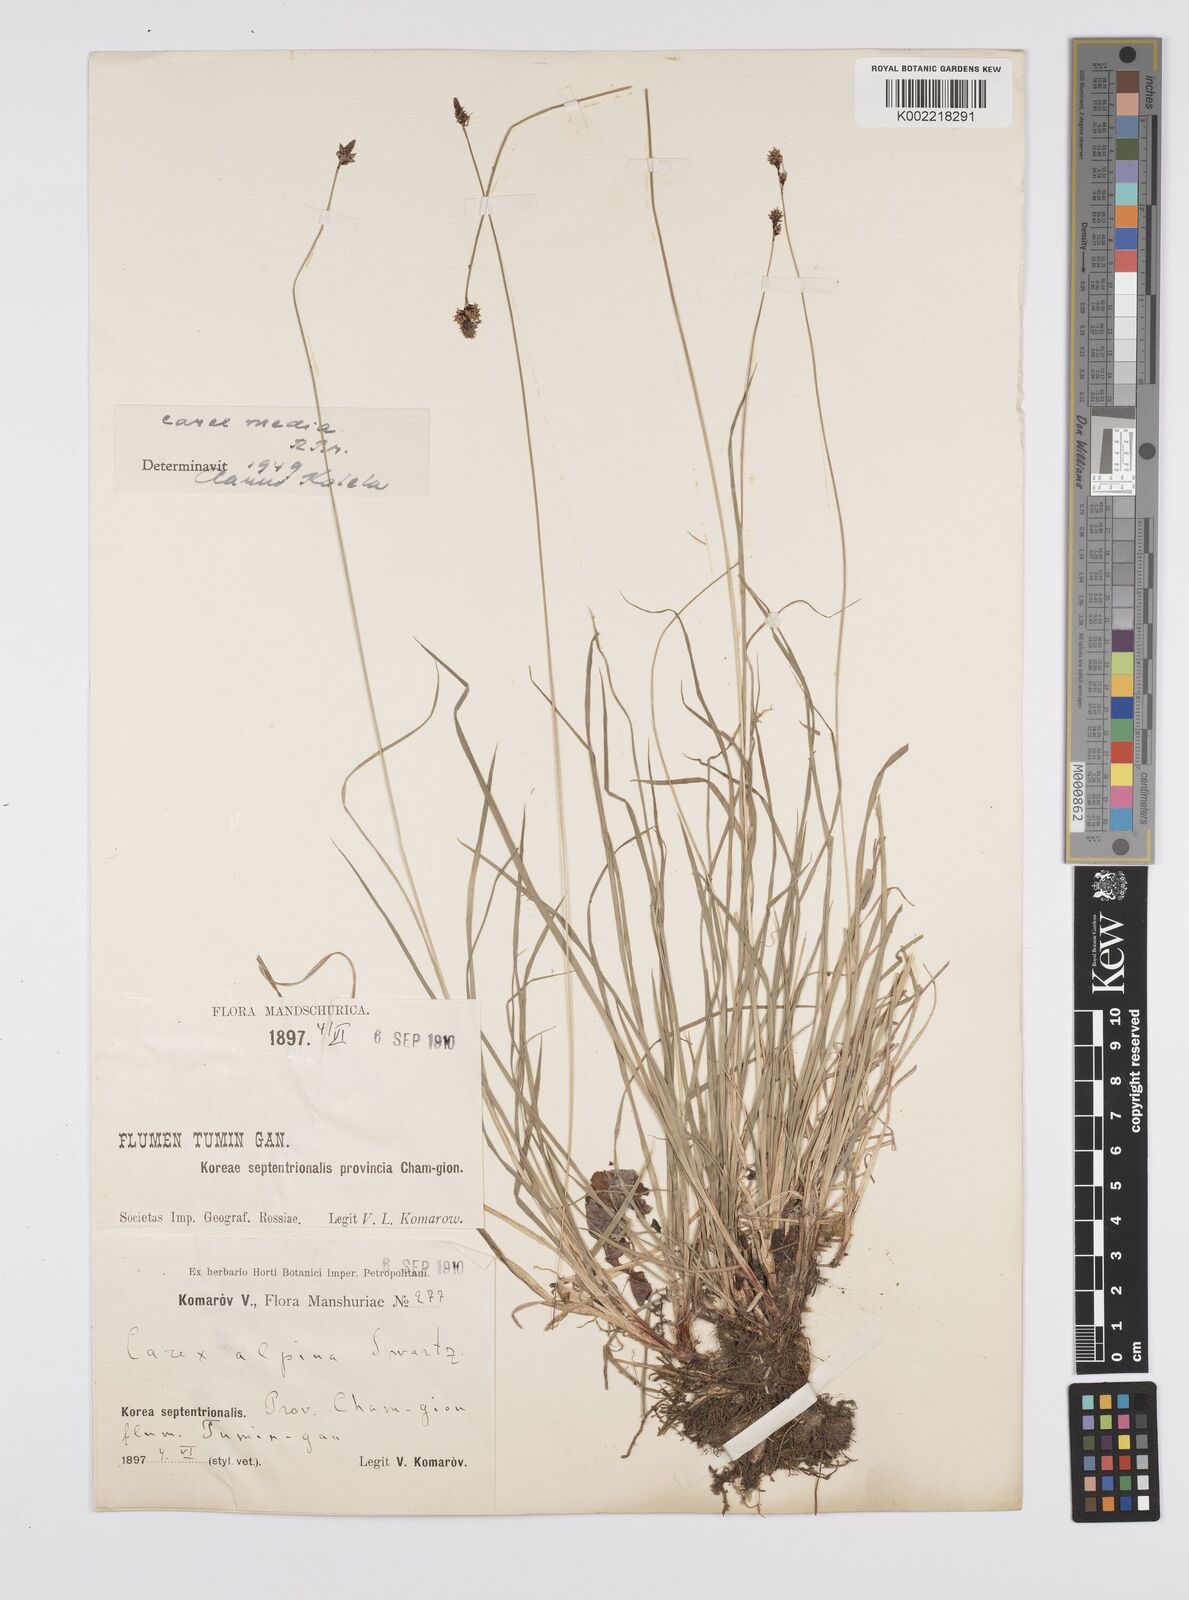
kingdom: Plantae
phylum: Tracheophyta
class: Liliopsida
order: Poales
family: Cyperaceae
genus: Carex
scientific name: Carex norvegica
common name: Close-headed alpine-sedge
